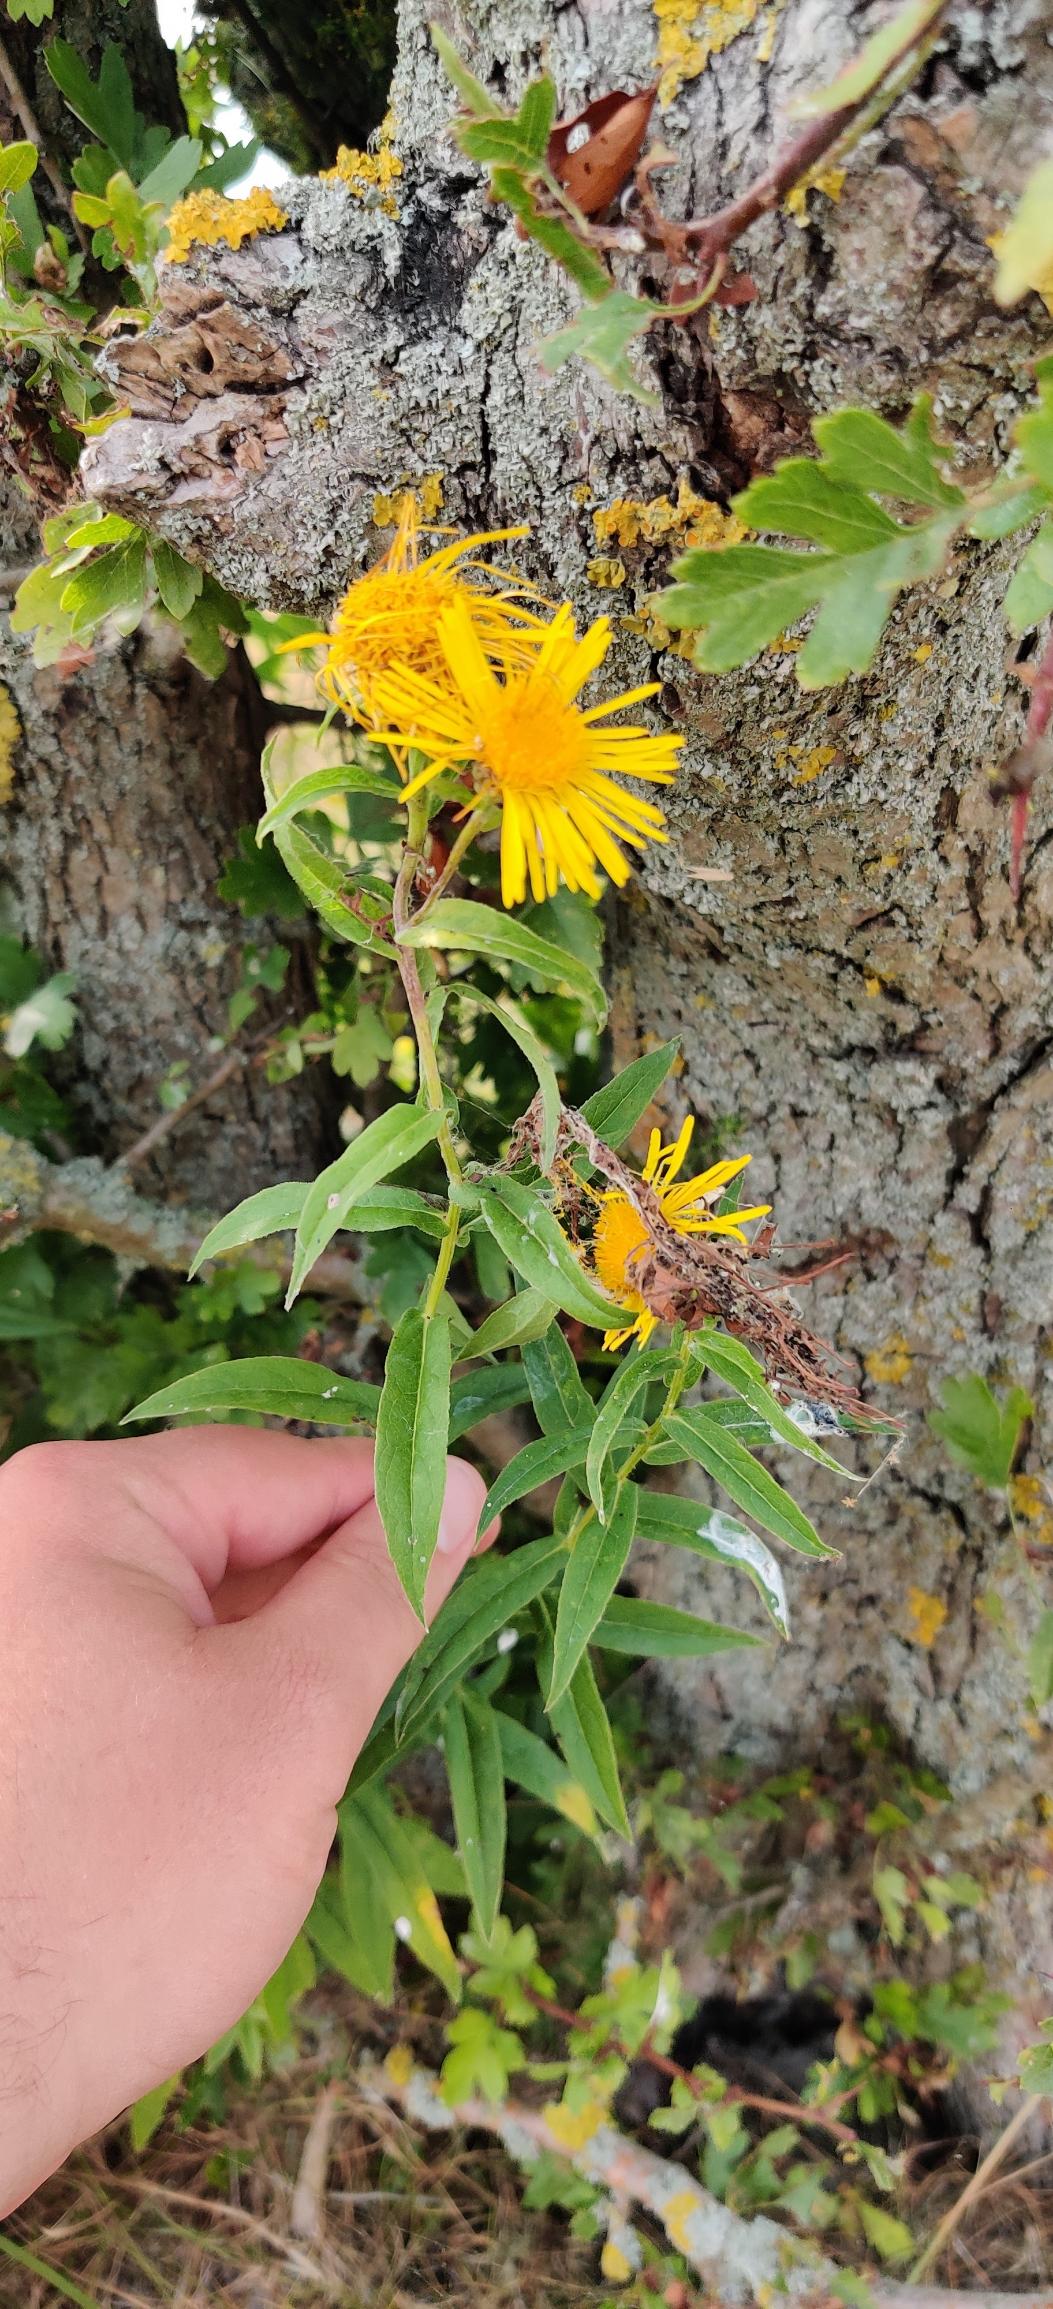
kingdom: Plantae
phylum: Tracheophyta
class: Magnoliopsida
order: Asterales
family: Asteraceae
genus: Pentanema
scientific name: Pentanema salicinum
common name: Pile-alant
